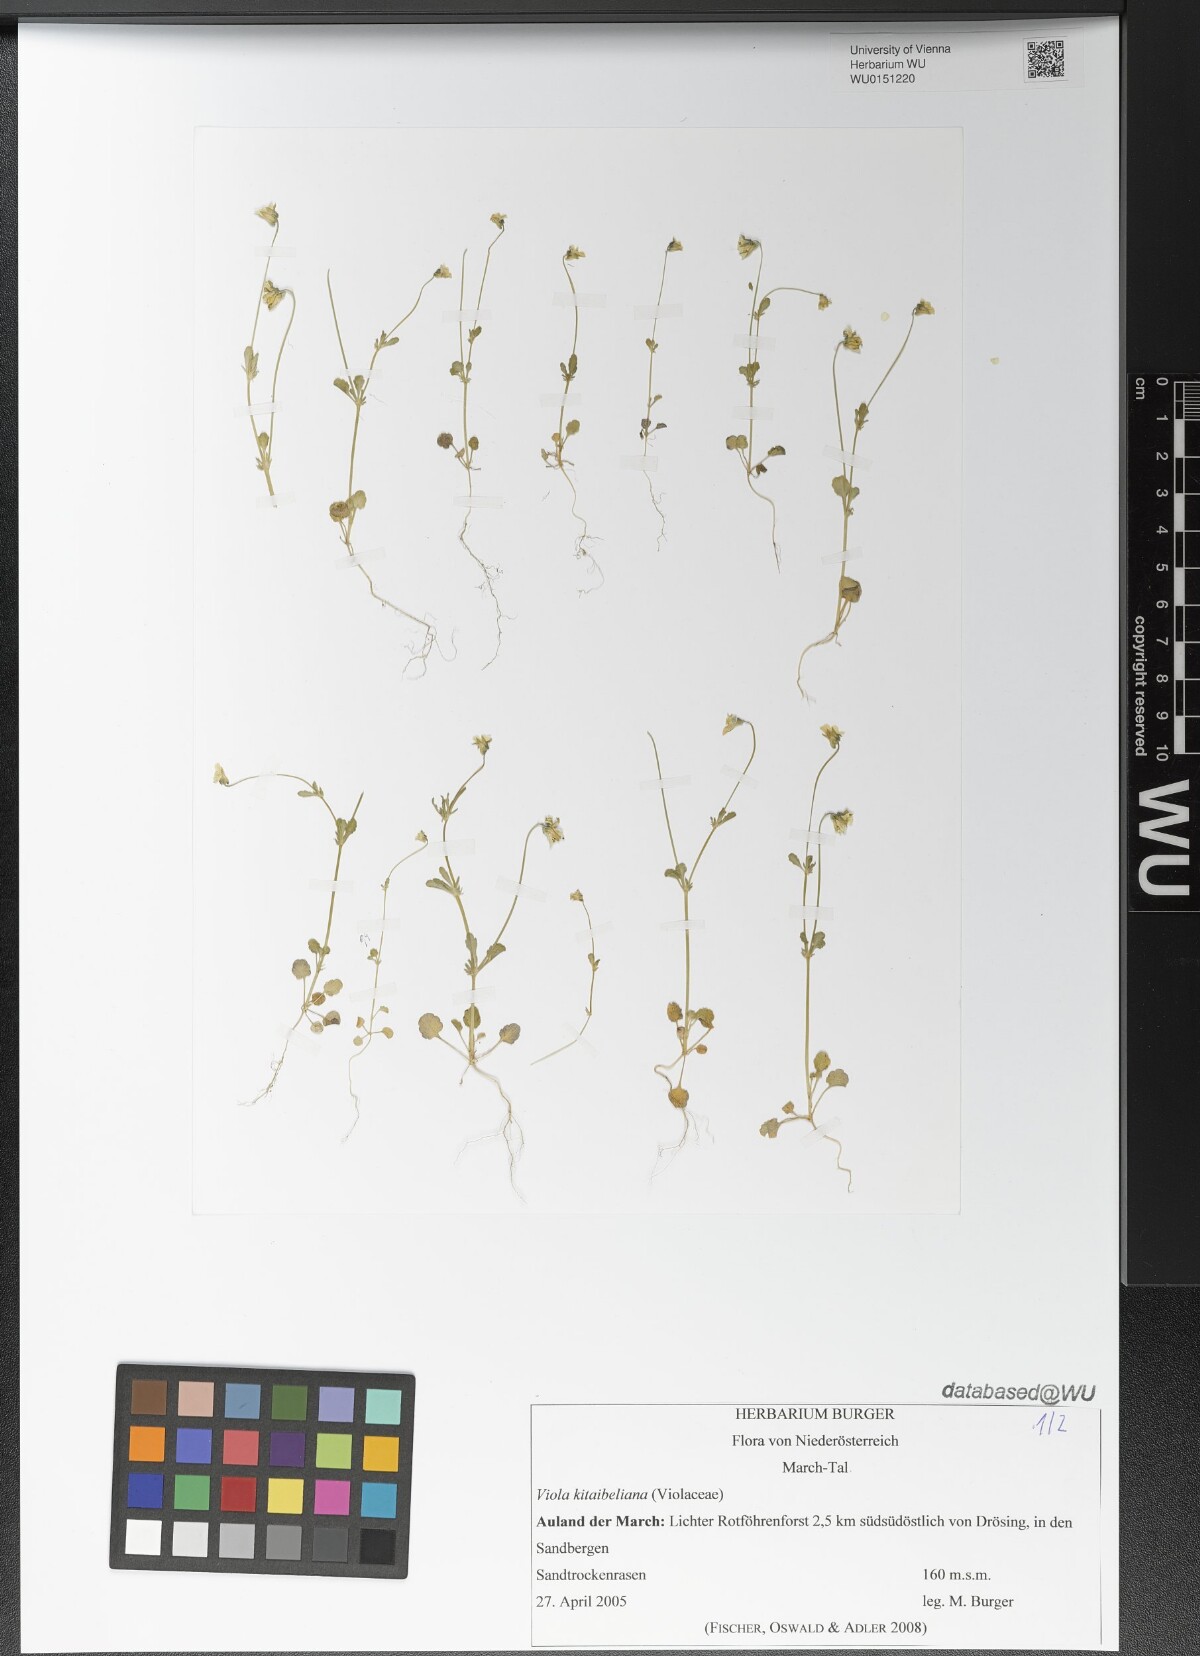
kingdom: Plantae
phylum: Tracheophyta
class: Magnoliopsida
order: Malpighiales
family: Violaceae
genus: Viola
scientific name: Viola kitaibeliana
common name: Dwarf pansy
